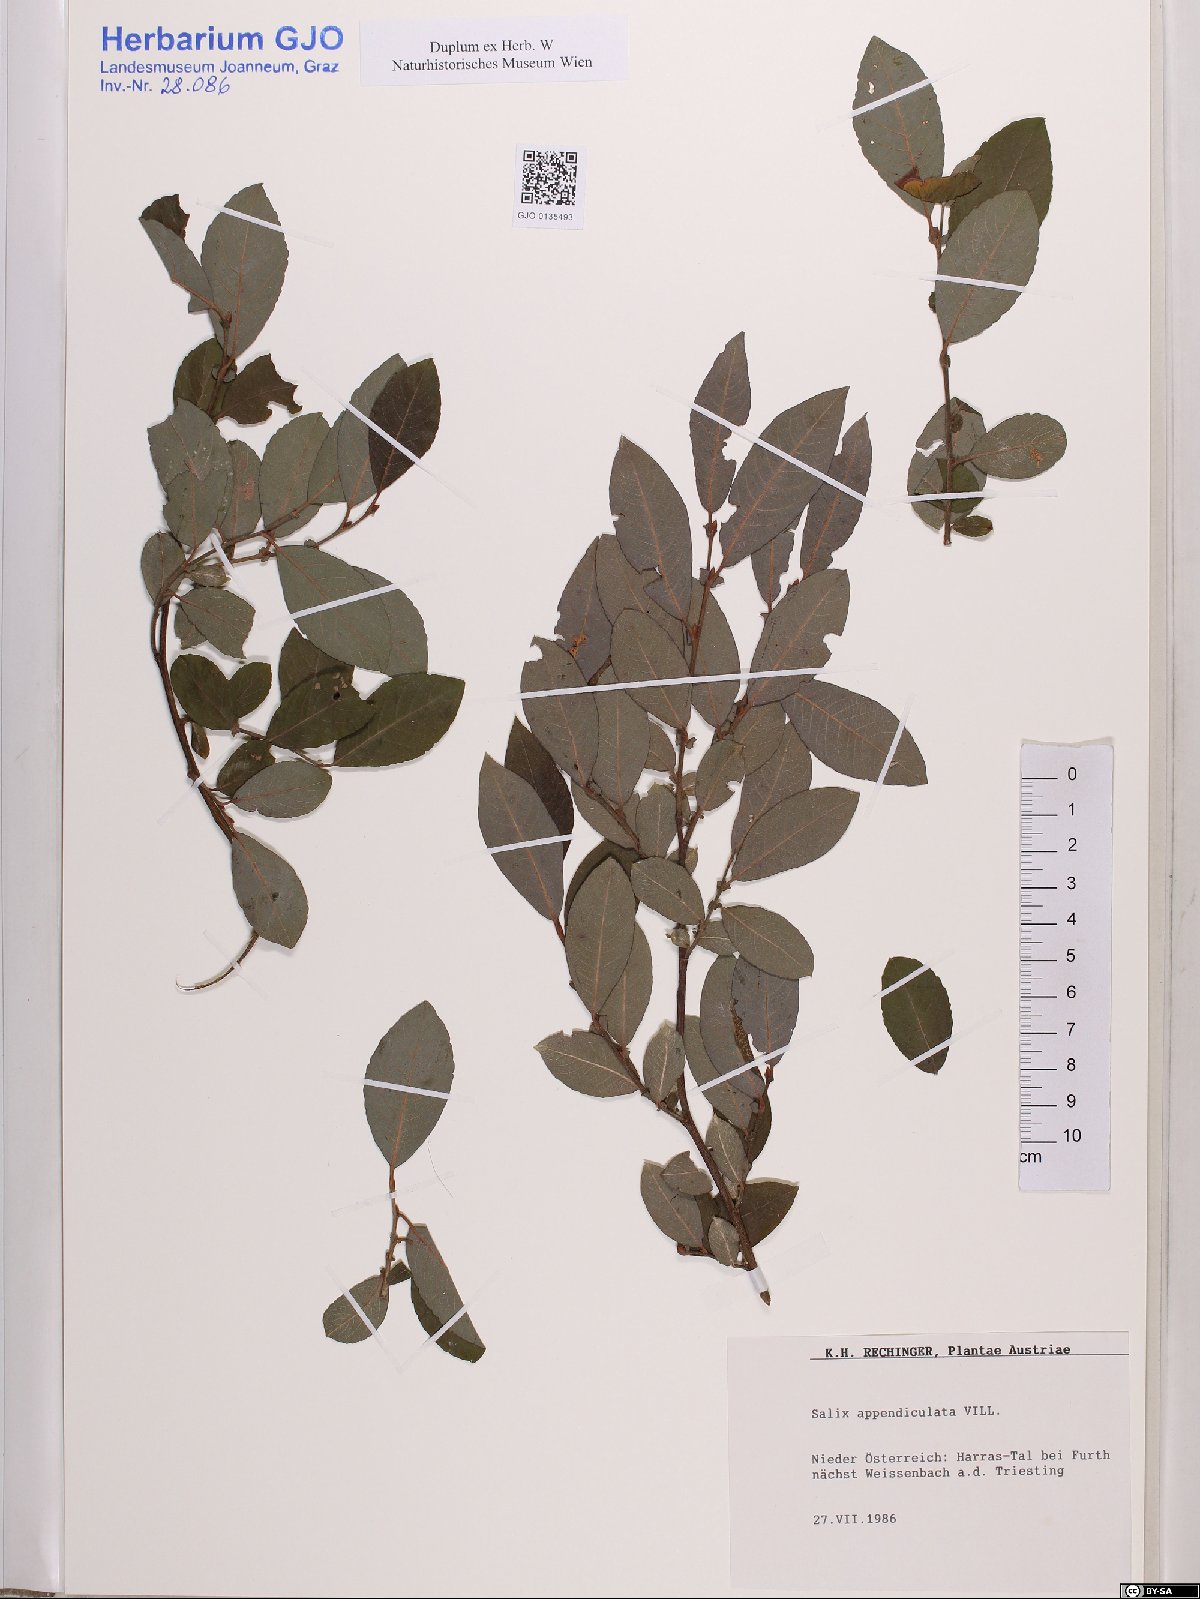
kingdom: Plantae
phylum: Tracheophyta
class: Magnoliopsida
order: Malpighiales
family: Salicaceae
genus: Salix
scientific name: Salix appendiculata
